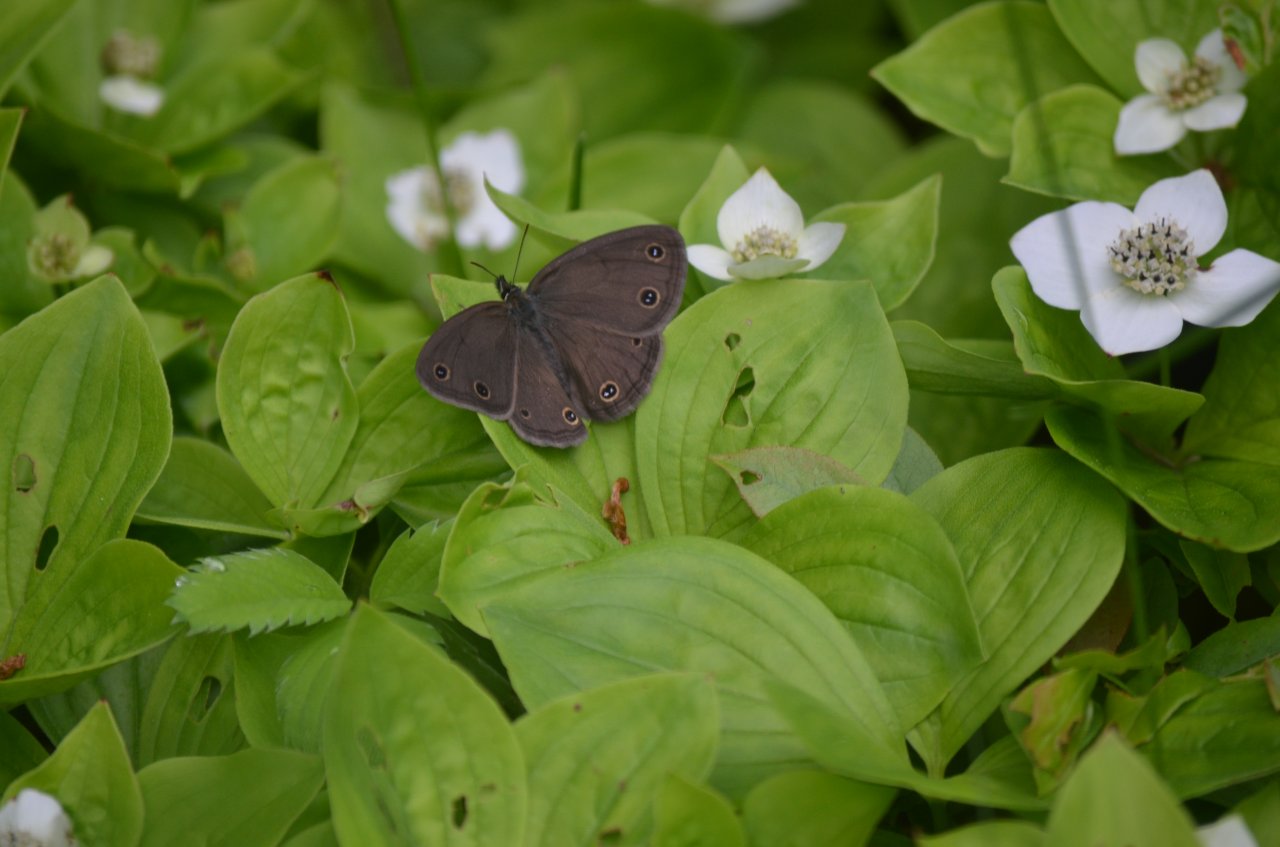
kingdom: Animalia
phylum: Arthropoda
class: Insecta
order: Lepidoptera
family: Nymphalidae
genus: Euptychia
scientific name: Euptychia cymela
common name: Little Wood Satyr
